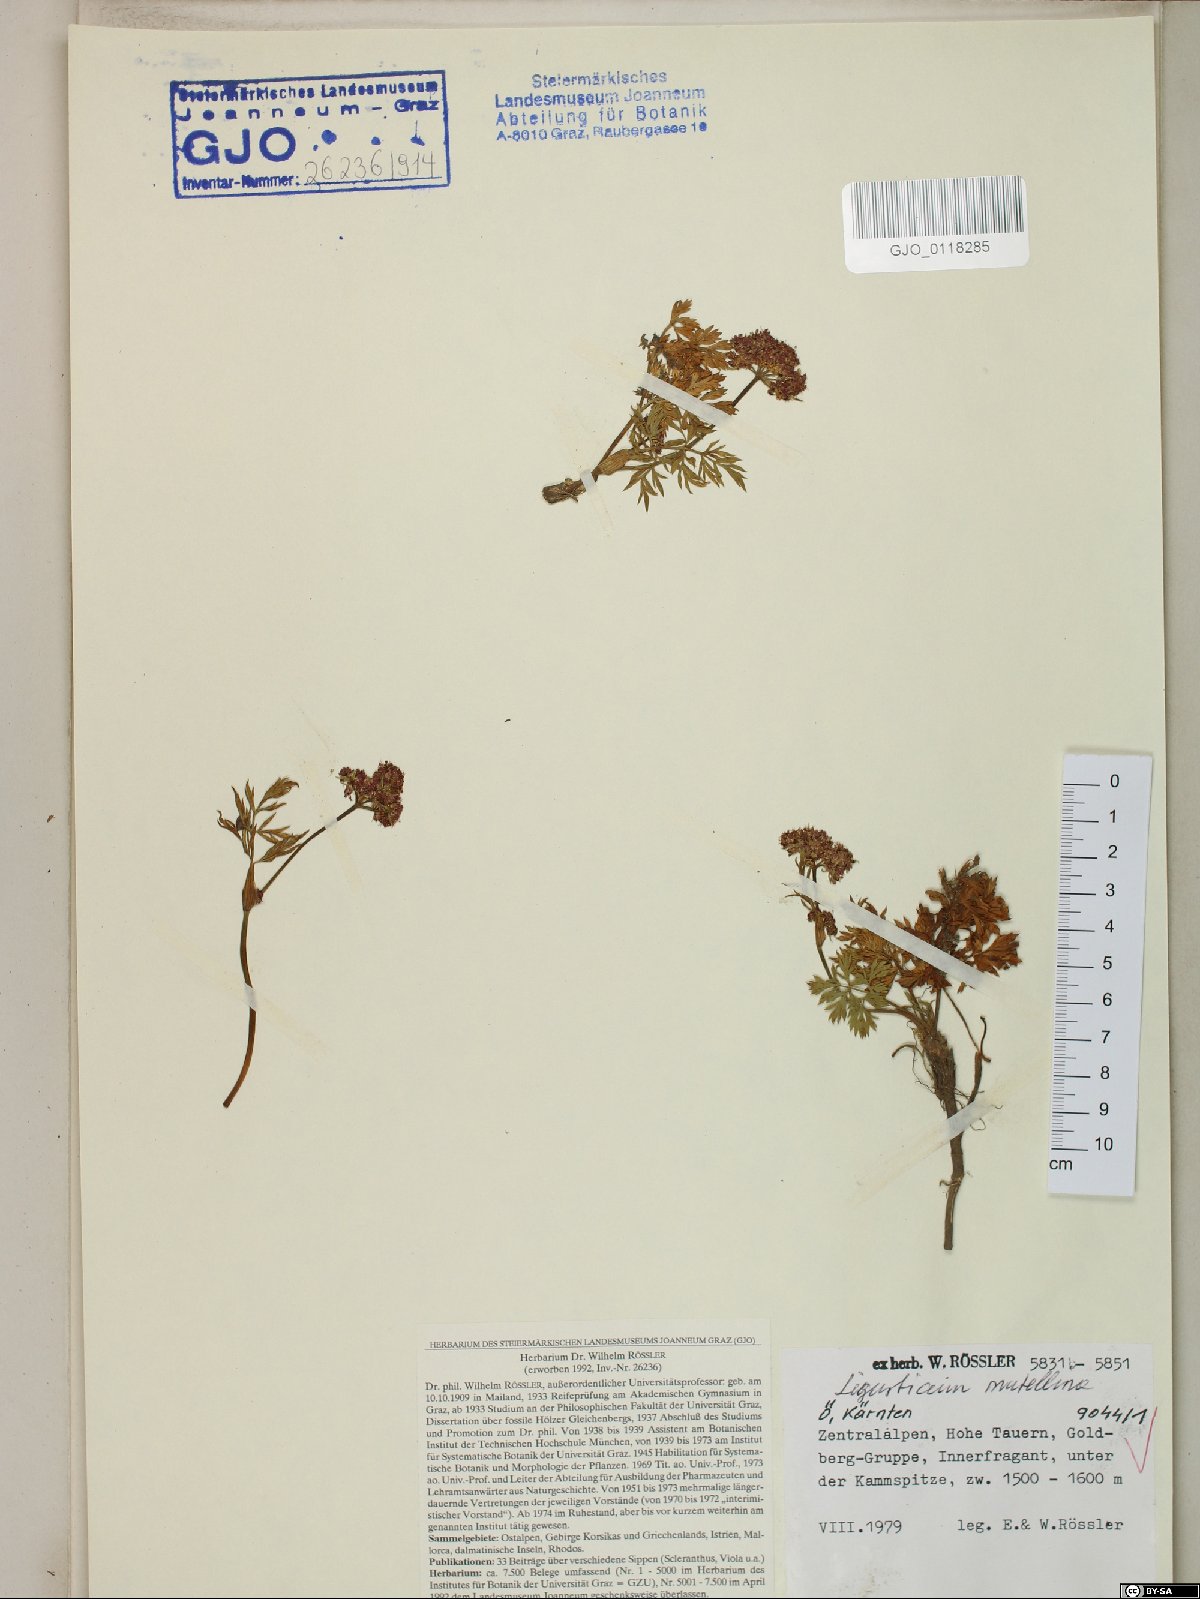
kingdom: Plantae
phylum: Tracheophyta
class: Magnoliopsida
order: Apiales
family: Apiaceae
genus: Mutellina
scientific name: Mutellina adonidifolia
